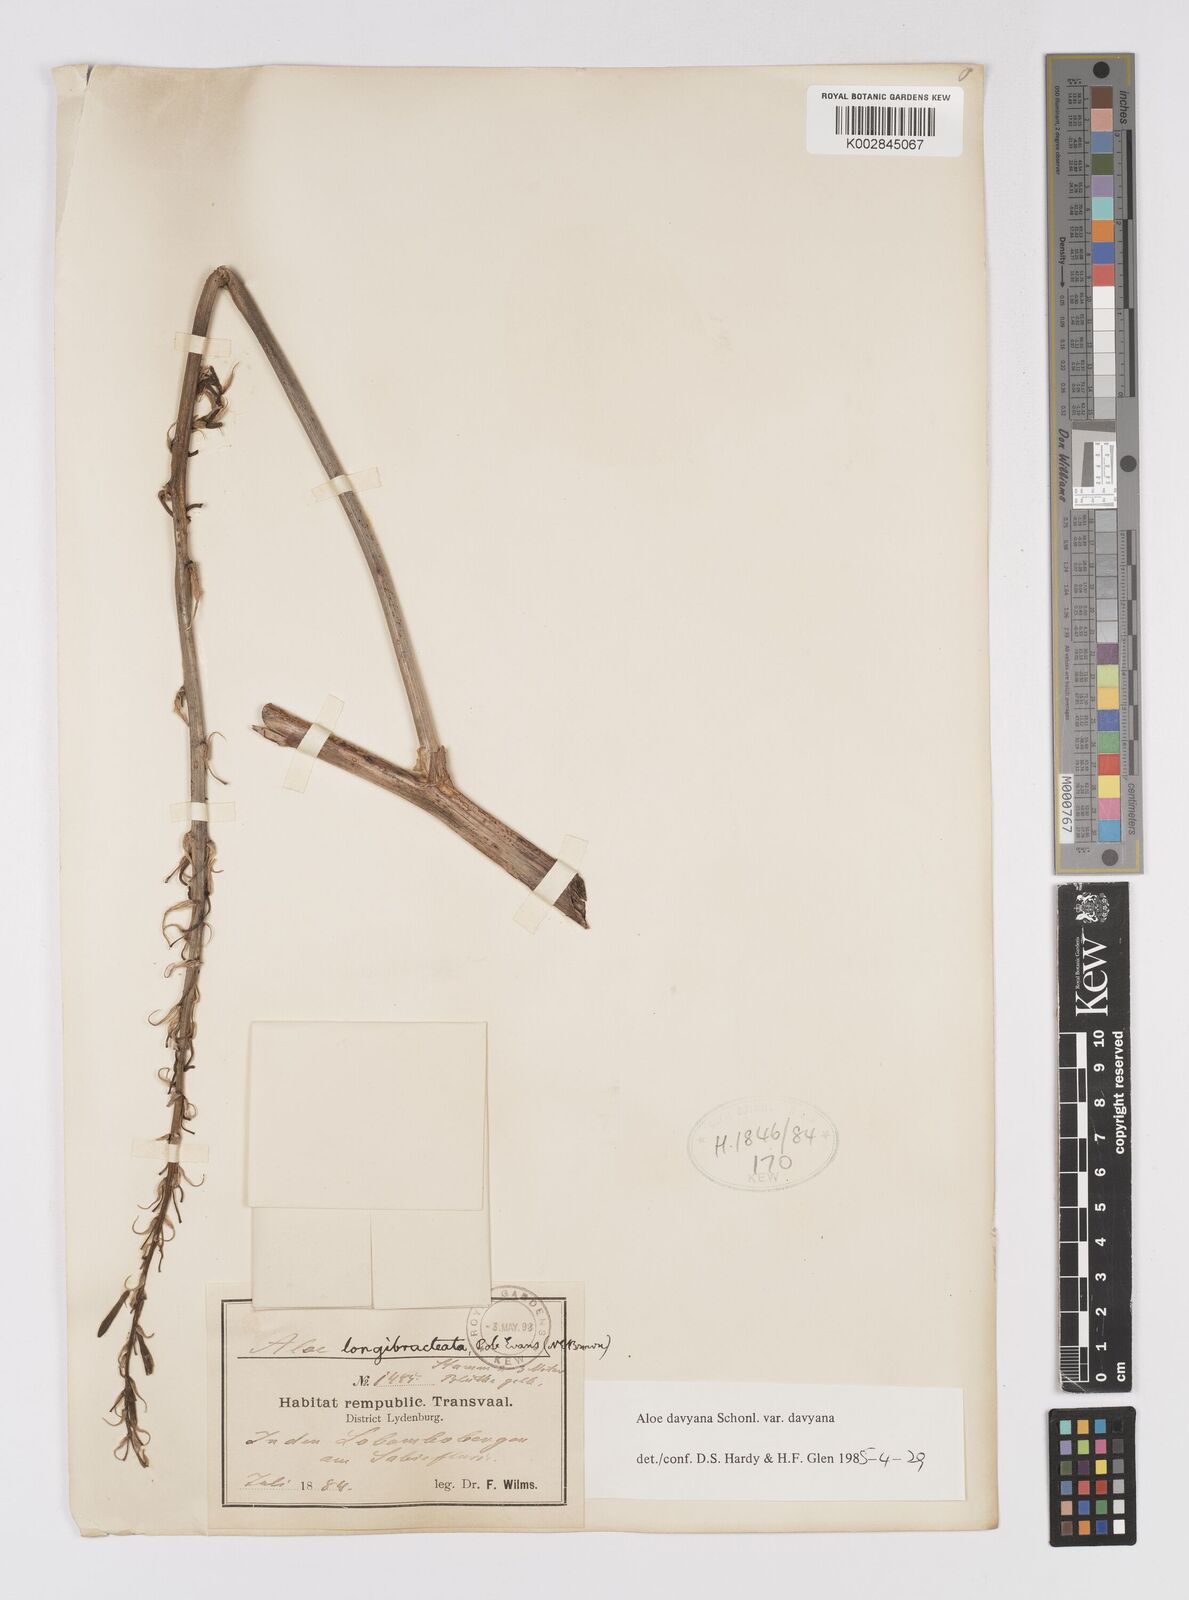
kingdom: Plantae
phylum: Tracheophyta
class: Liliopsida
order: Asparagales
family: Asphodelaceae
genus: Aloe
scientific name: Aloe davyana
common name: Spotted aloe
